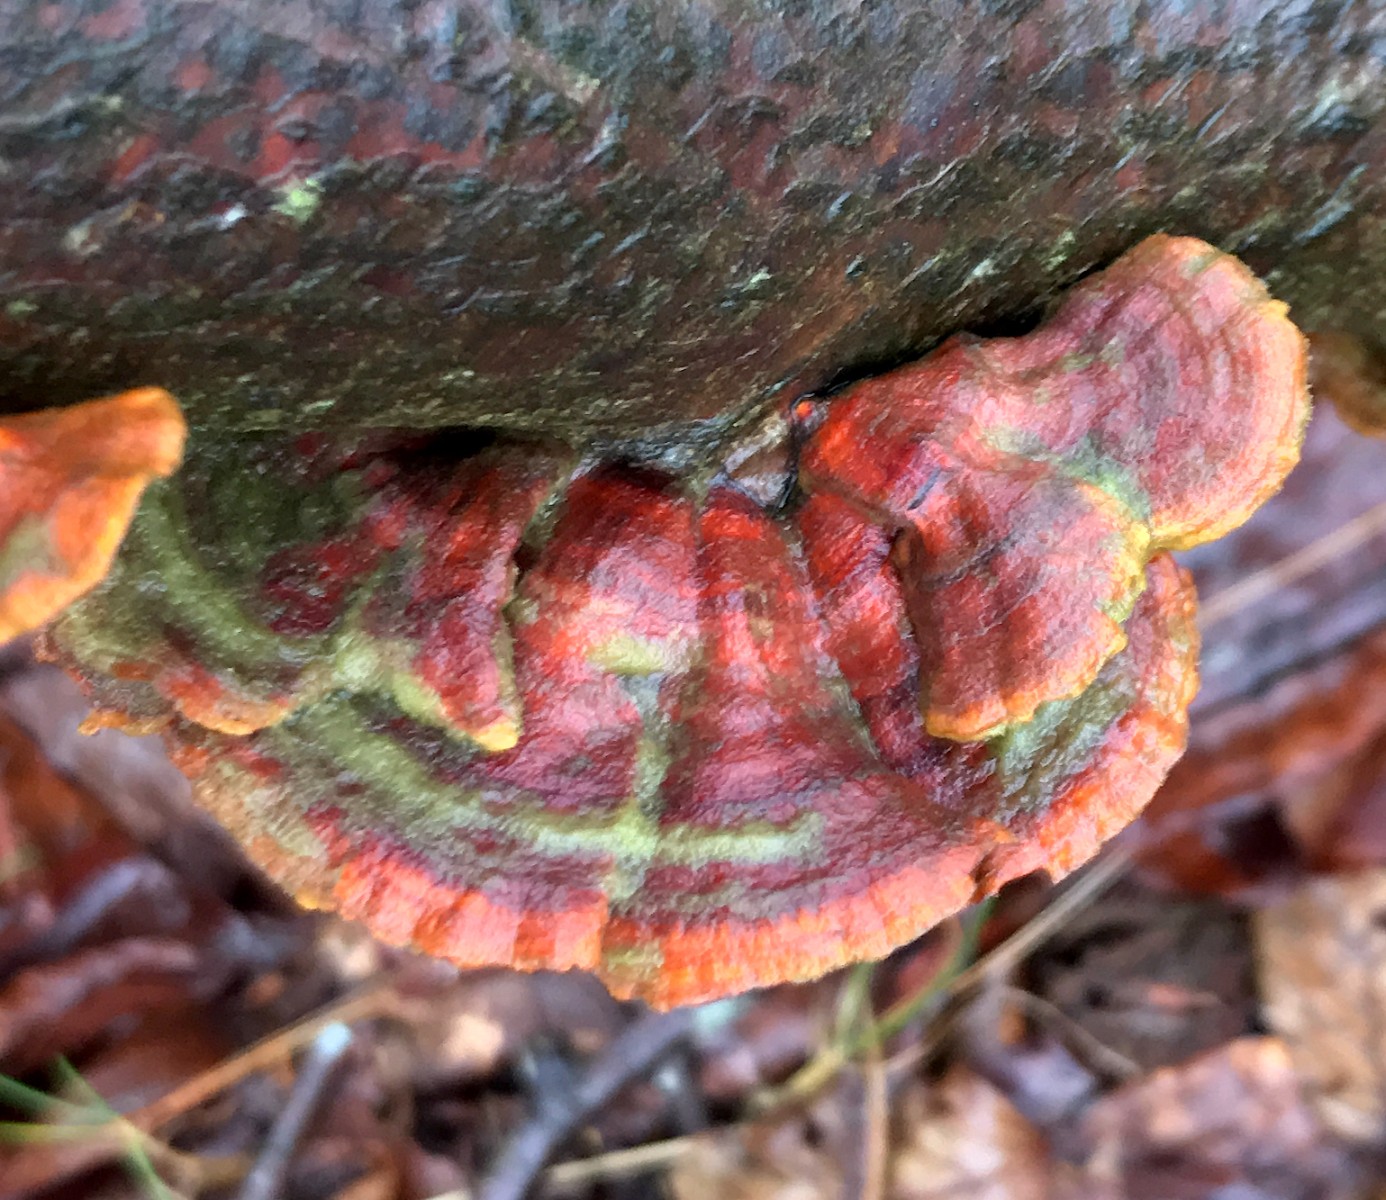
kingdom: Fungi
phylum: Basidiomycota
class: Agaricomycetes
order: Russulales
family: Stereaceae
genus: Stereum
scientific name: Stereum subtomentosum
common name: smuk lædersvamp
